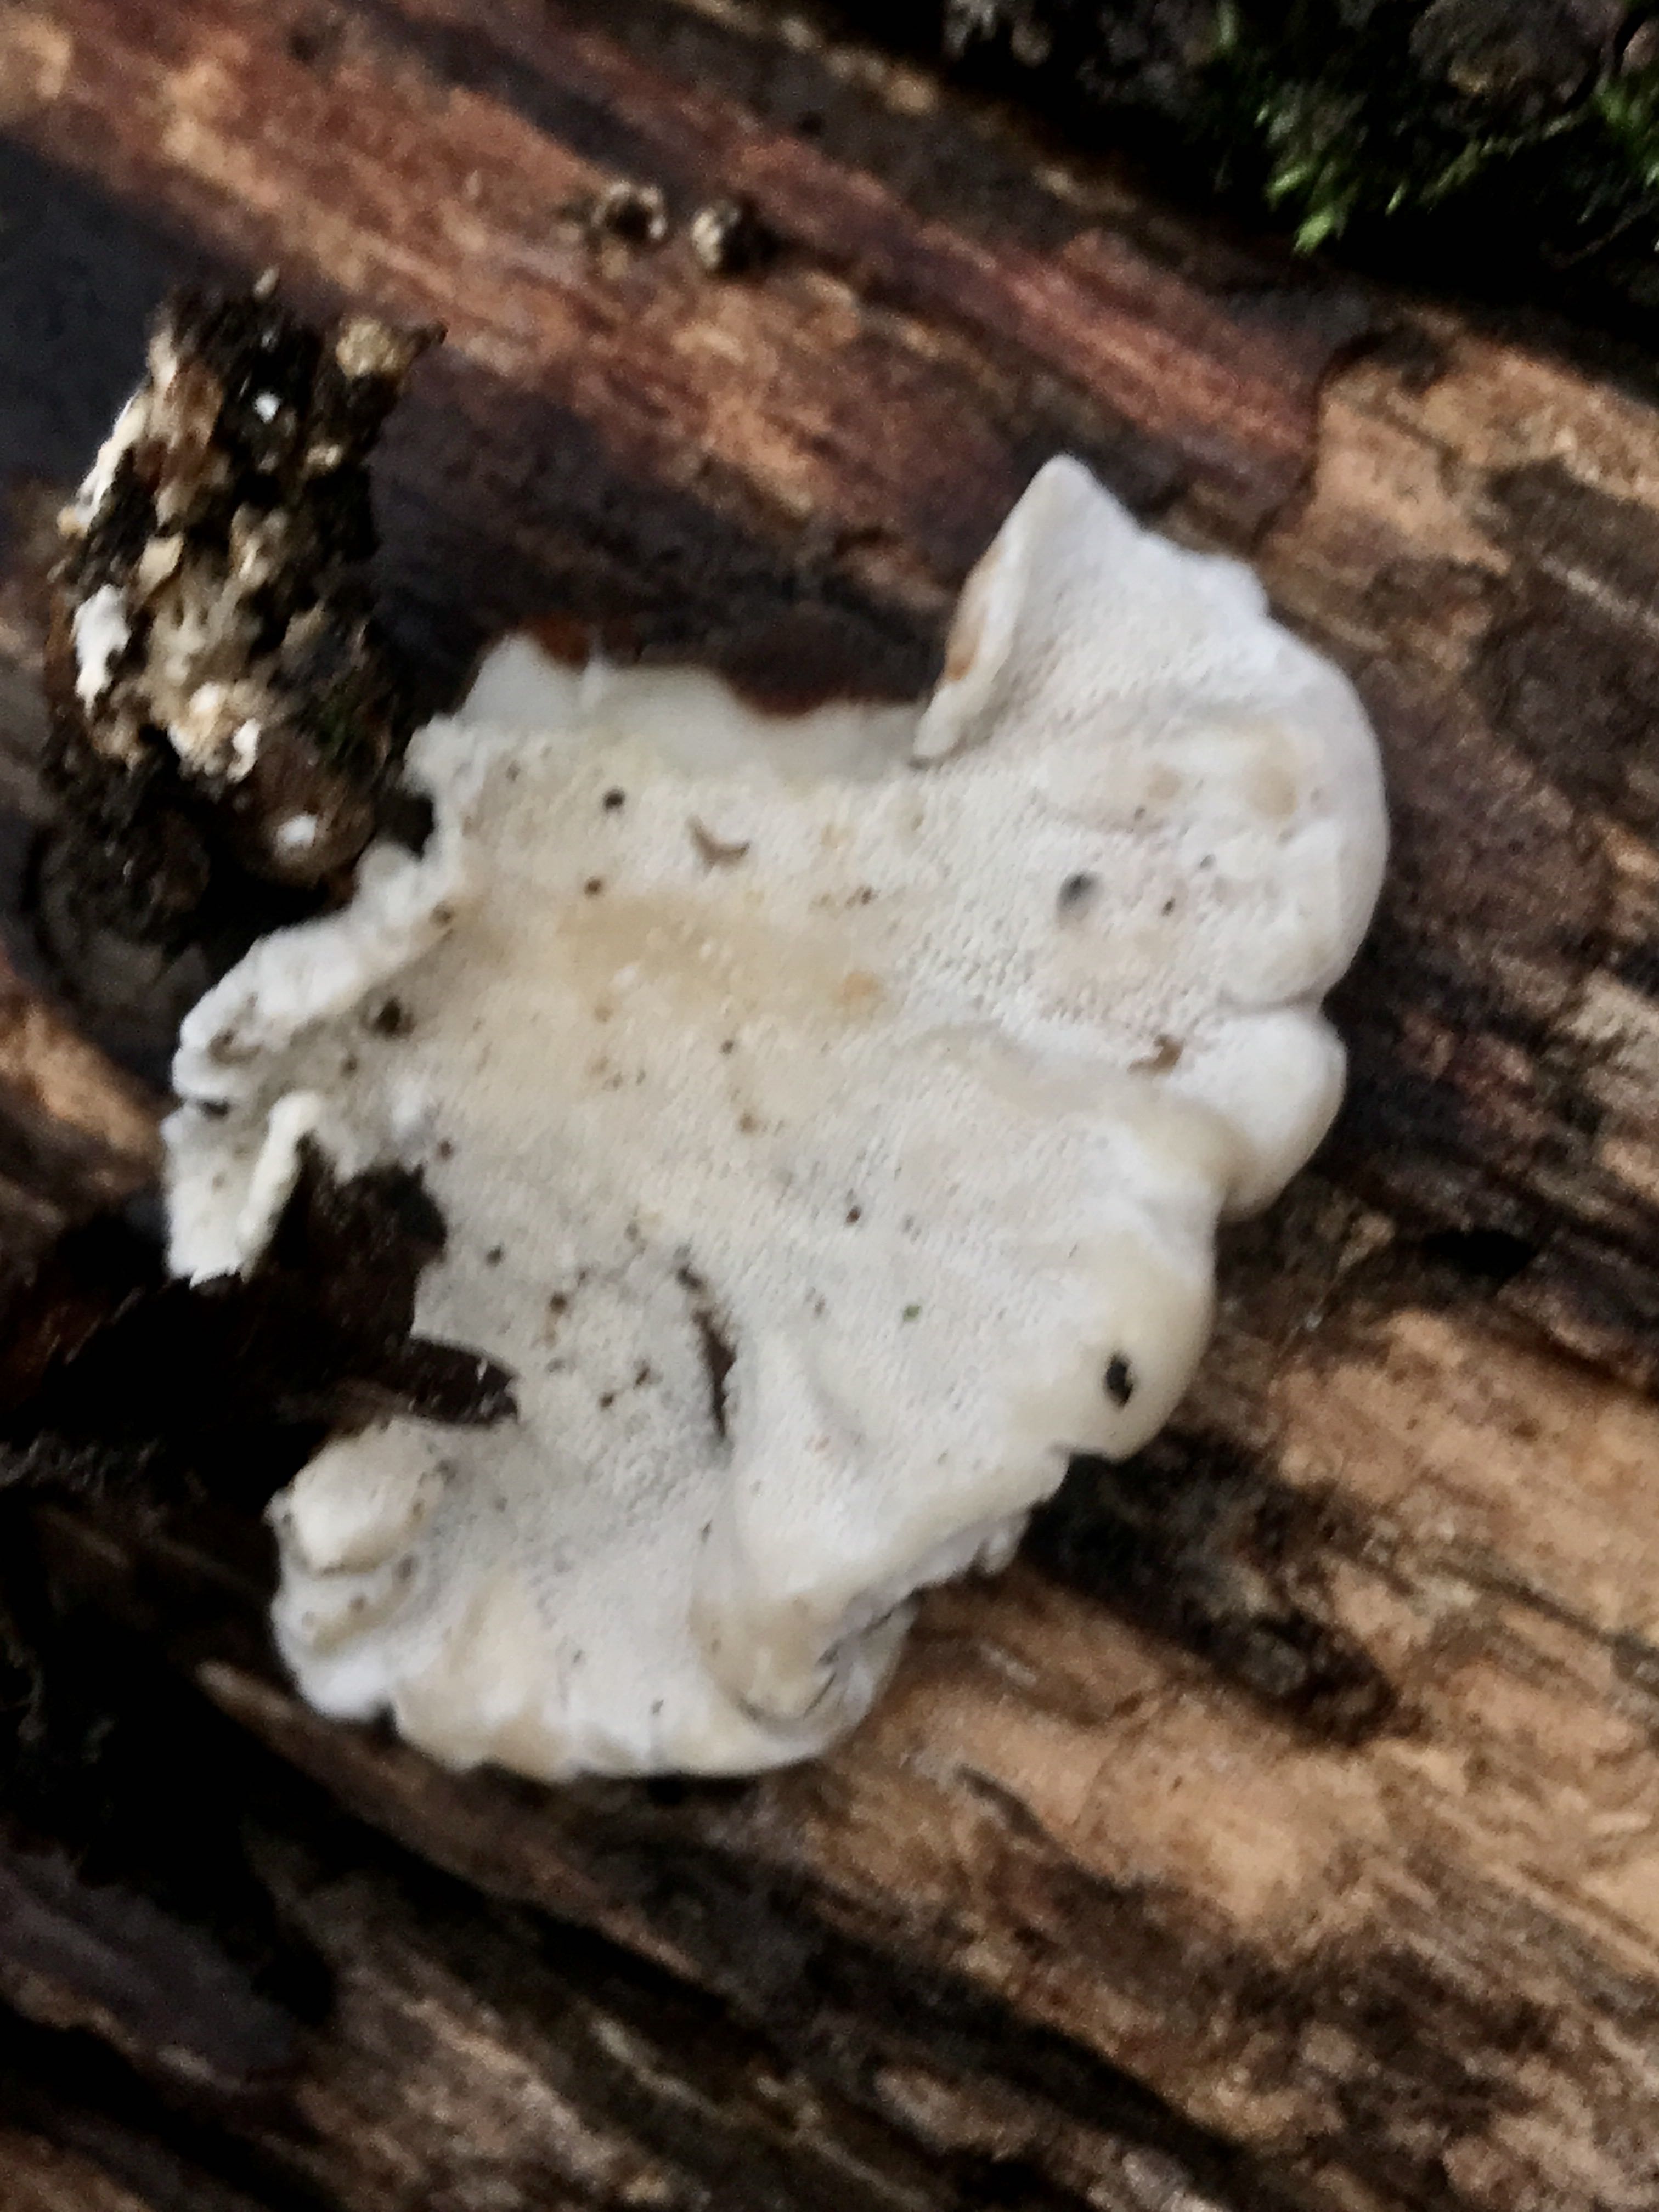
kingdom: Fungi
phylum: Basidiomycota
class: Agaricomycetes
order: Polyporales
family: Polyporaceae
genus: Trametes
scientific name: Trametes versicolor
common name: broget læderporesvamp
